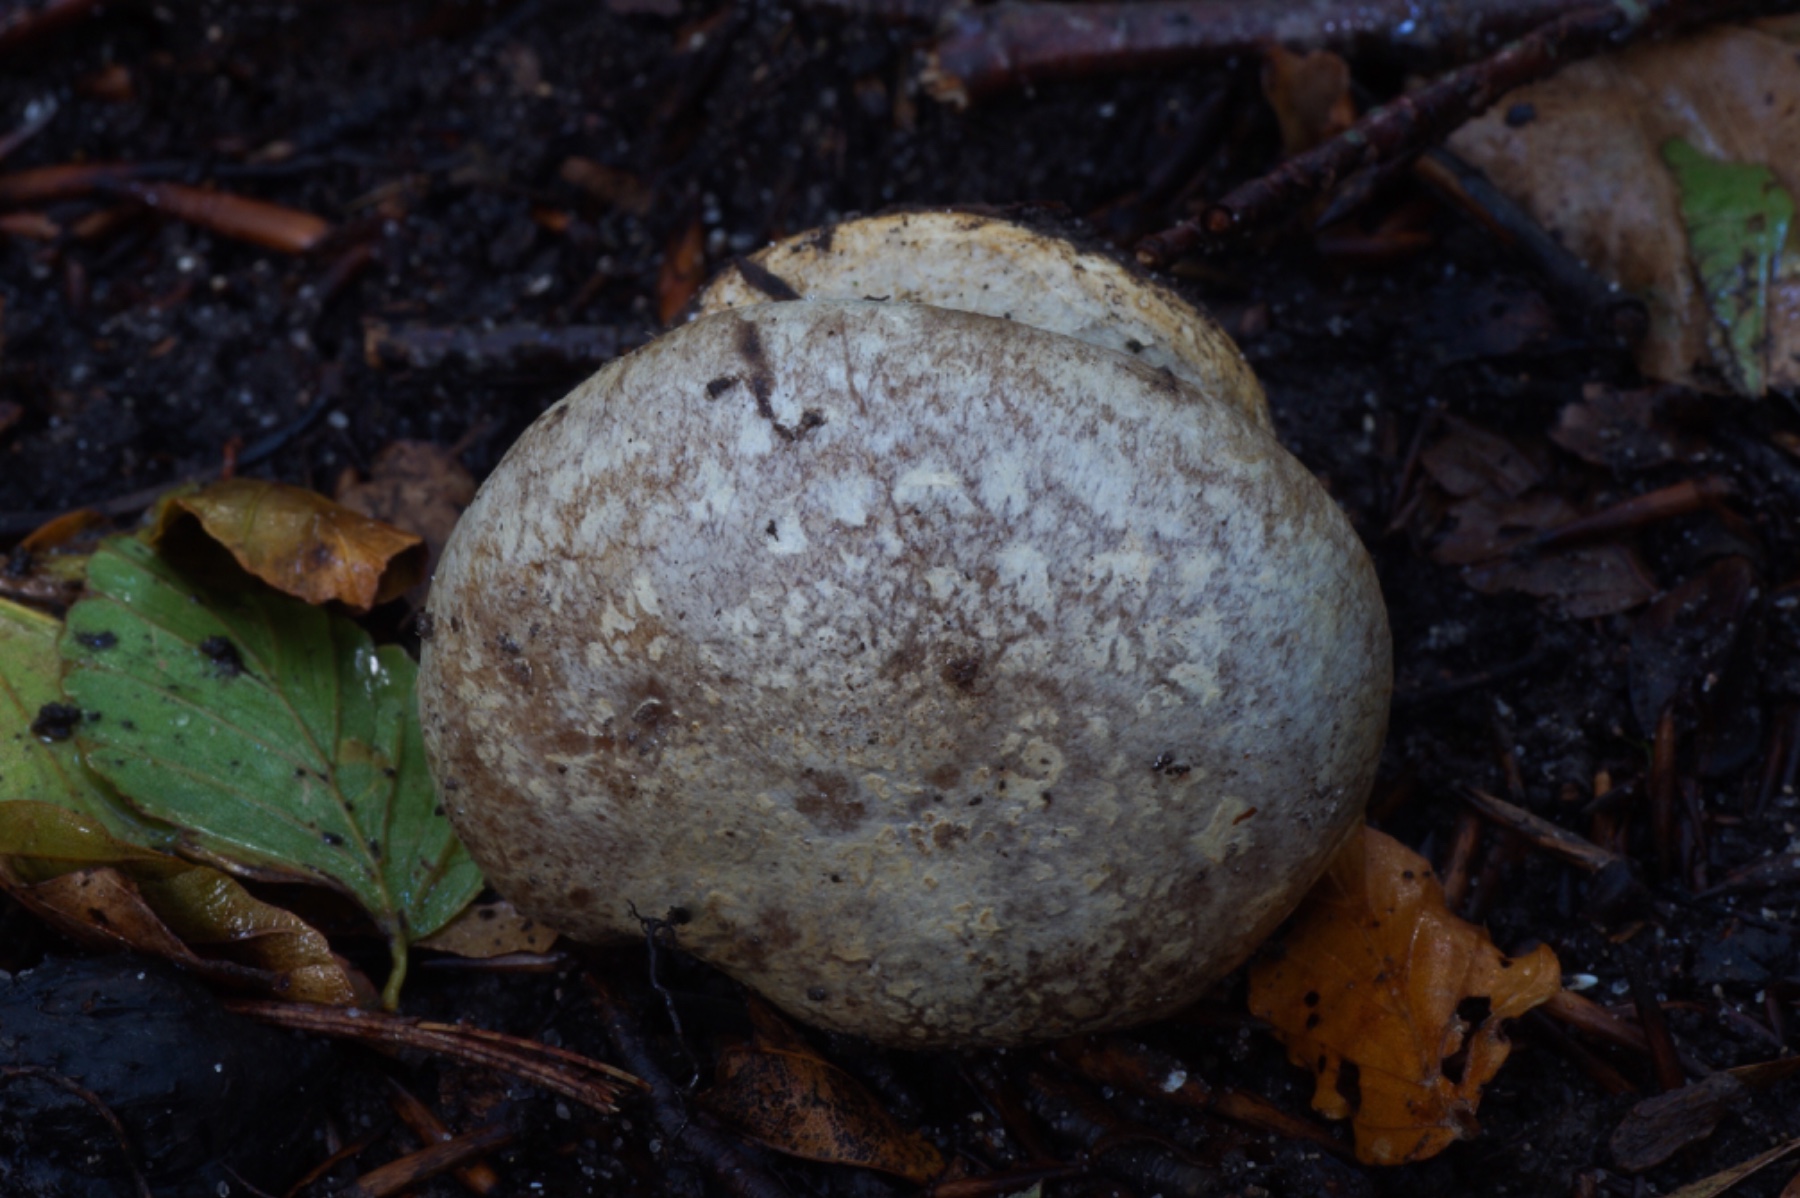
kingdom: Fungi
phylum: Basidiomycota
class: Agaricomycetes
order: Agaricales
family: Cortinariaceae
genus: Cortinarius
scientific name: Cortinarius foetens
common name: stribet slørhat
